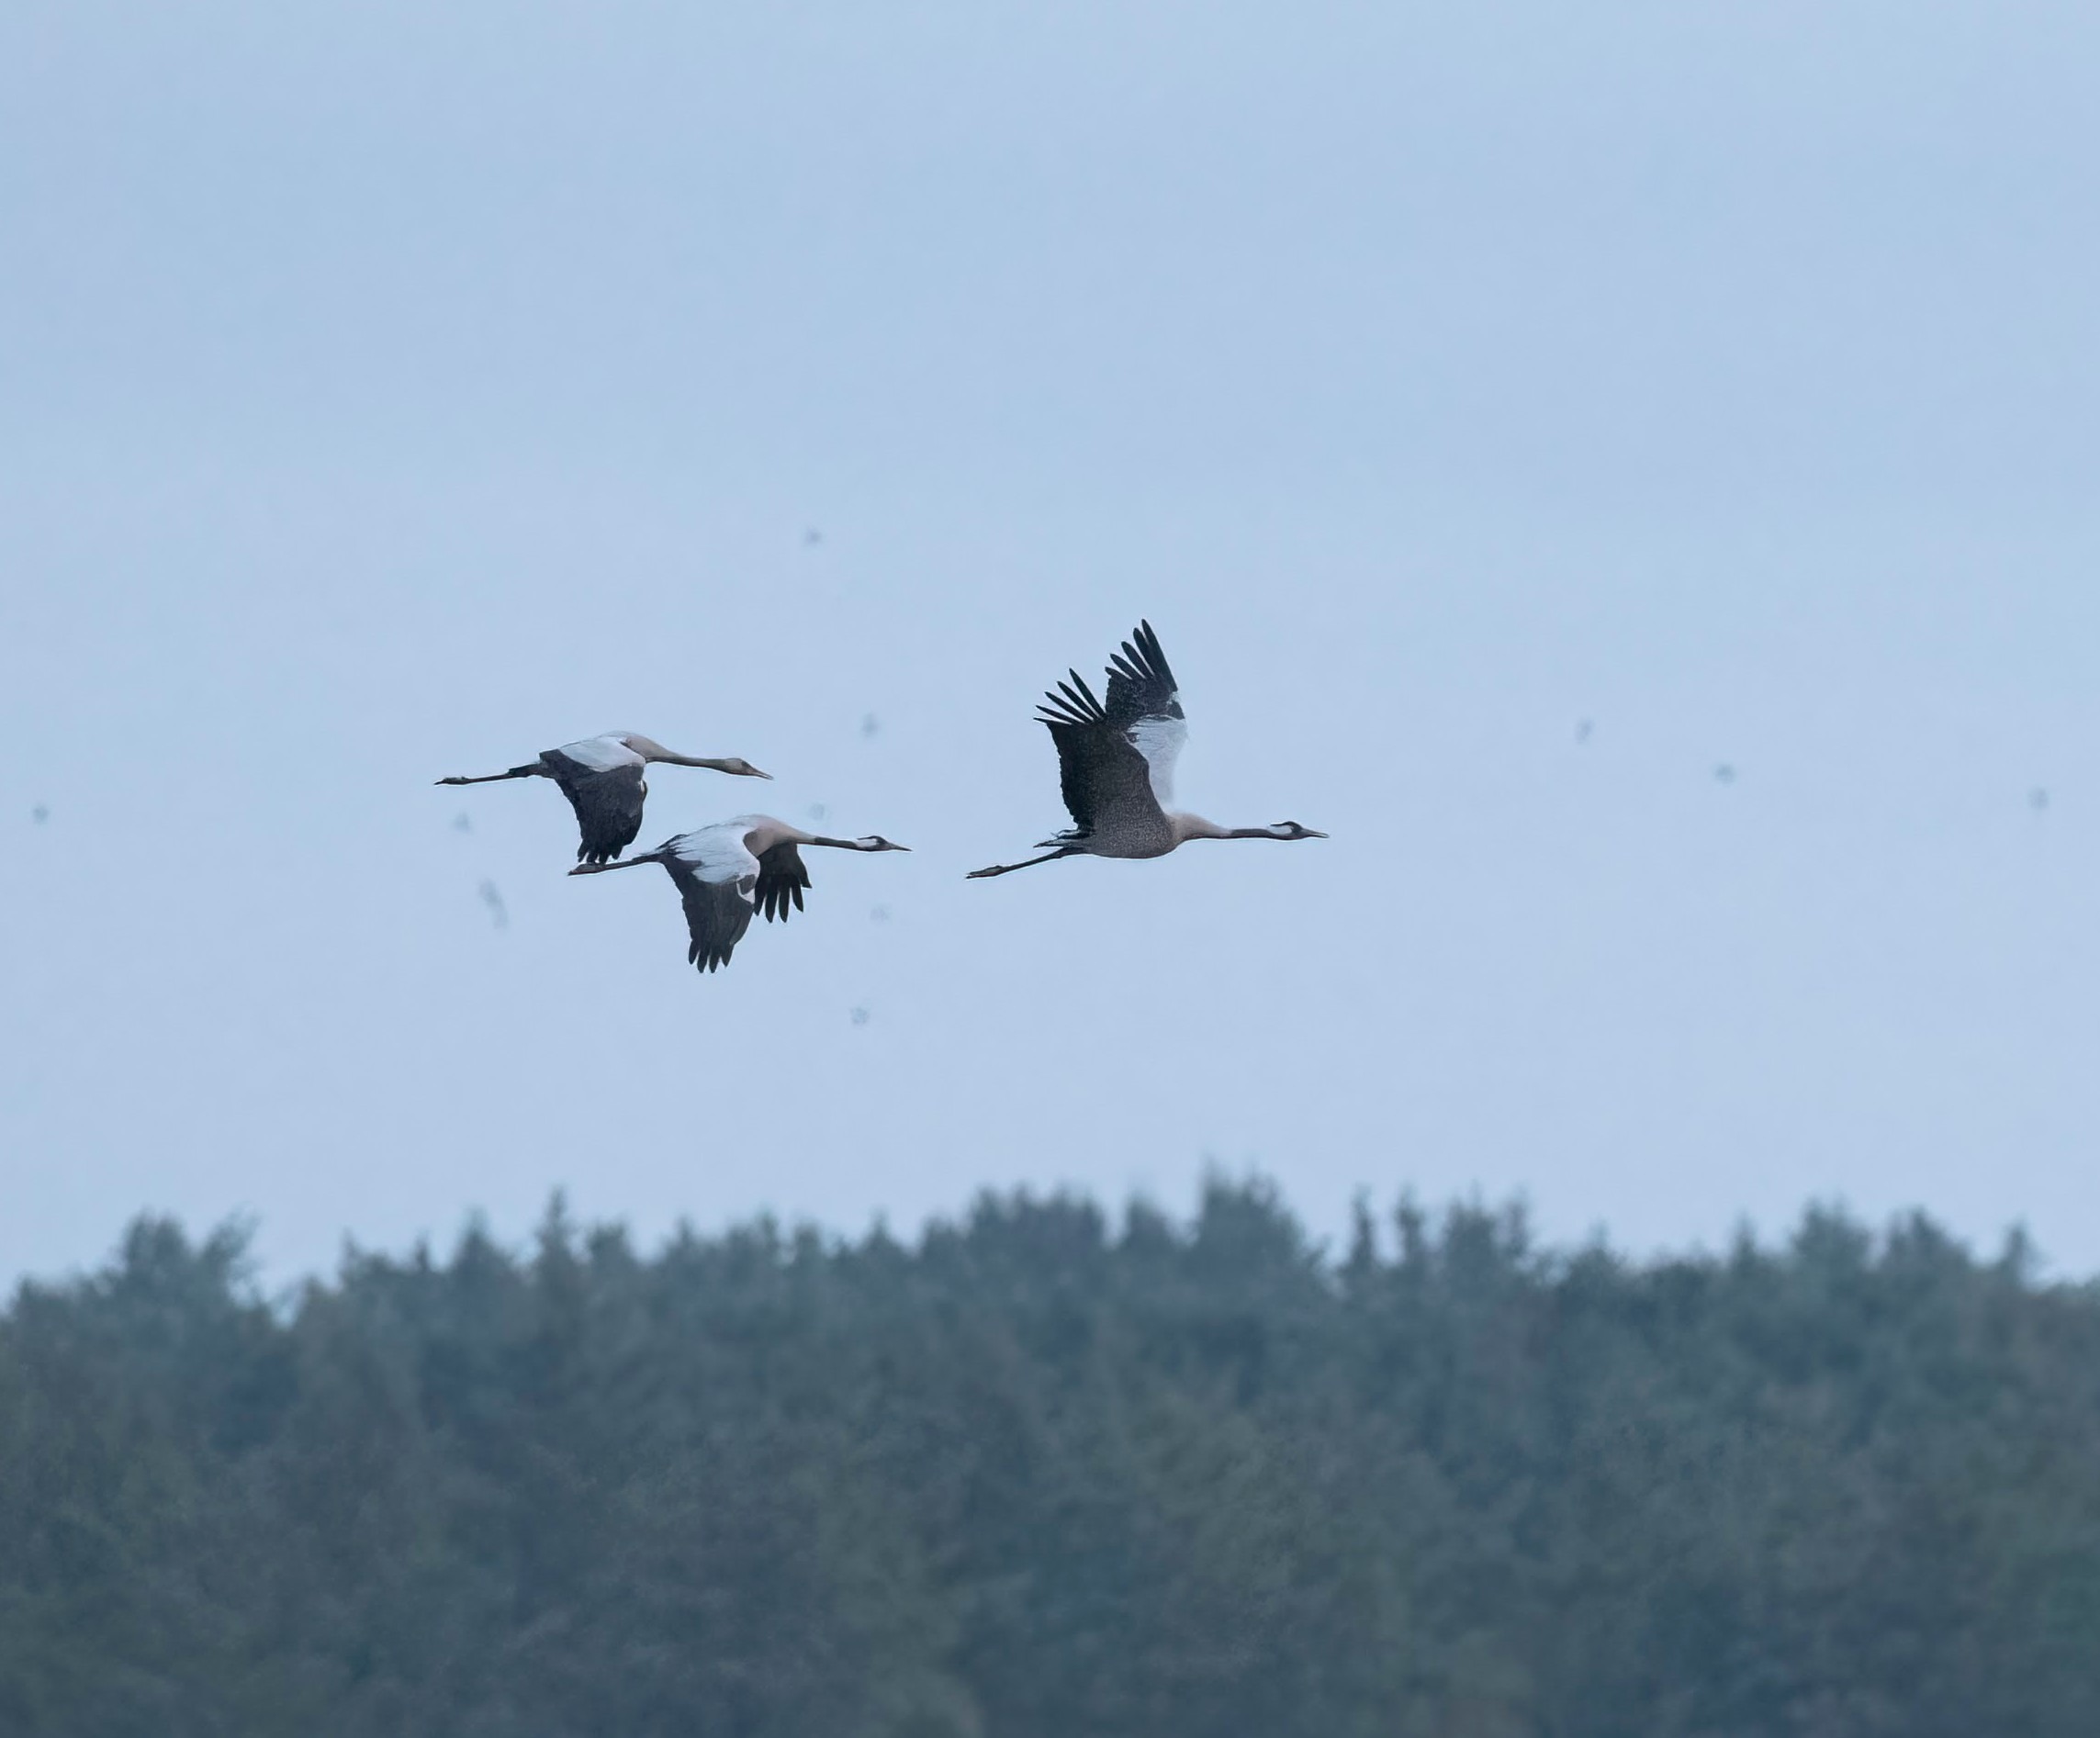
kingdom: Animalia
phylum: Chordata
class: Aves
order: Gruiformes
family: Gruidae
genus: Grus
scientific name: Grus grus
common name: Trane
